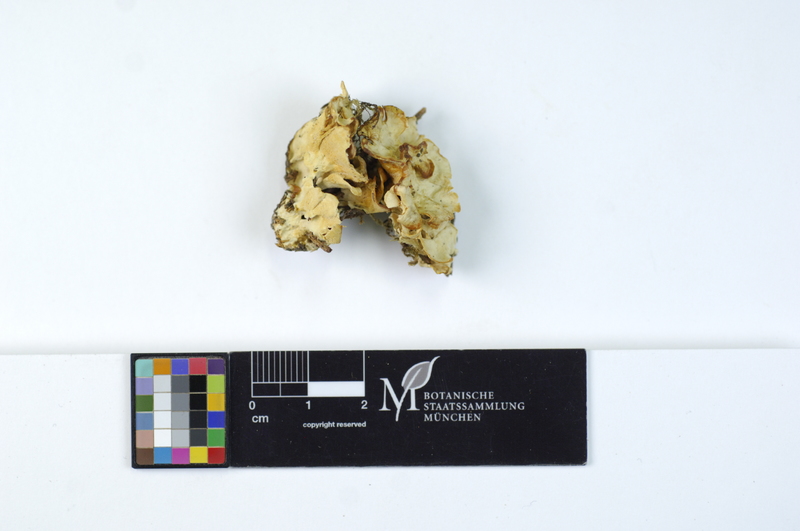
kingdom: Fungi
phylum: Basidiomycota
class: Agaricomycetes
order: Polyporales
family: Dacryobolaceae
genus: Spongiporus
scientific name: Spongiporus floriformis
